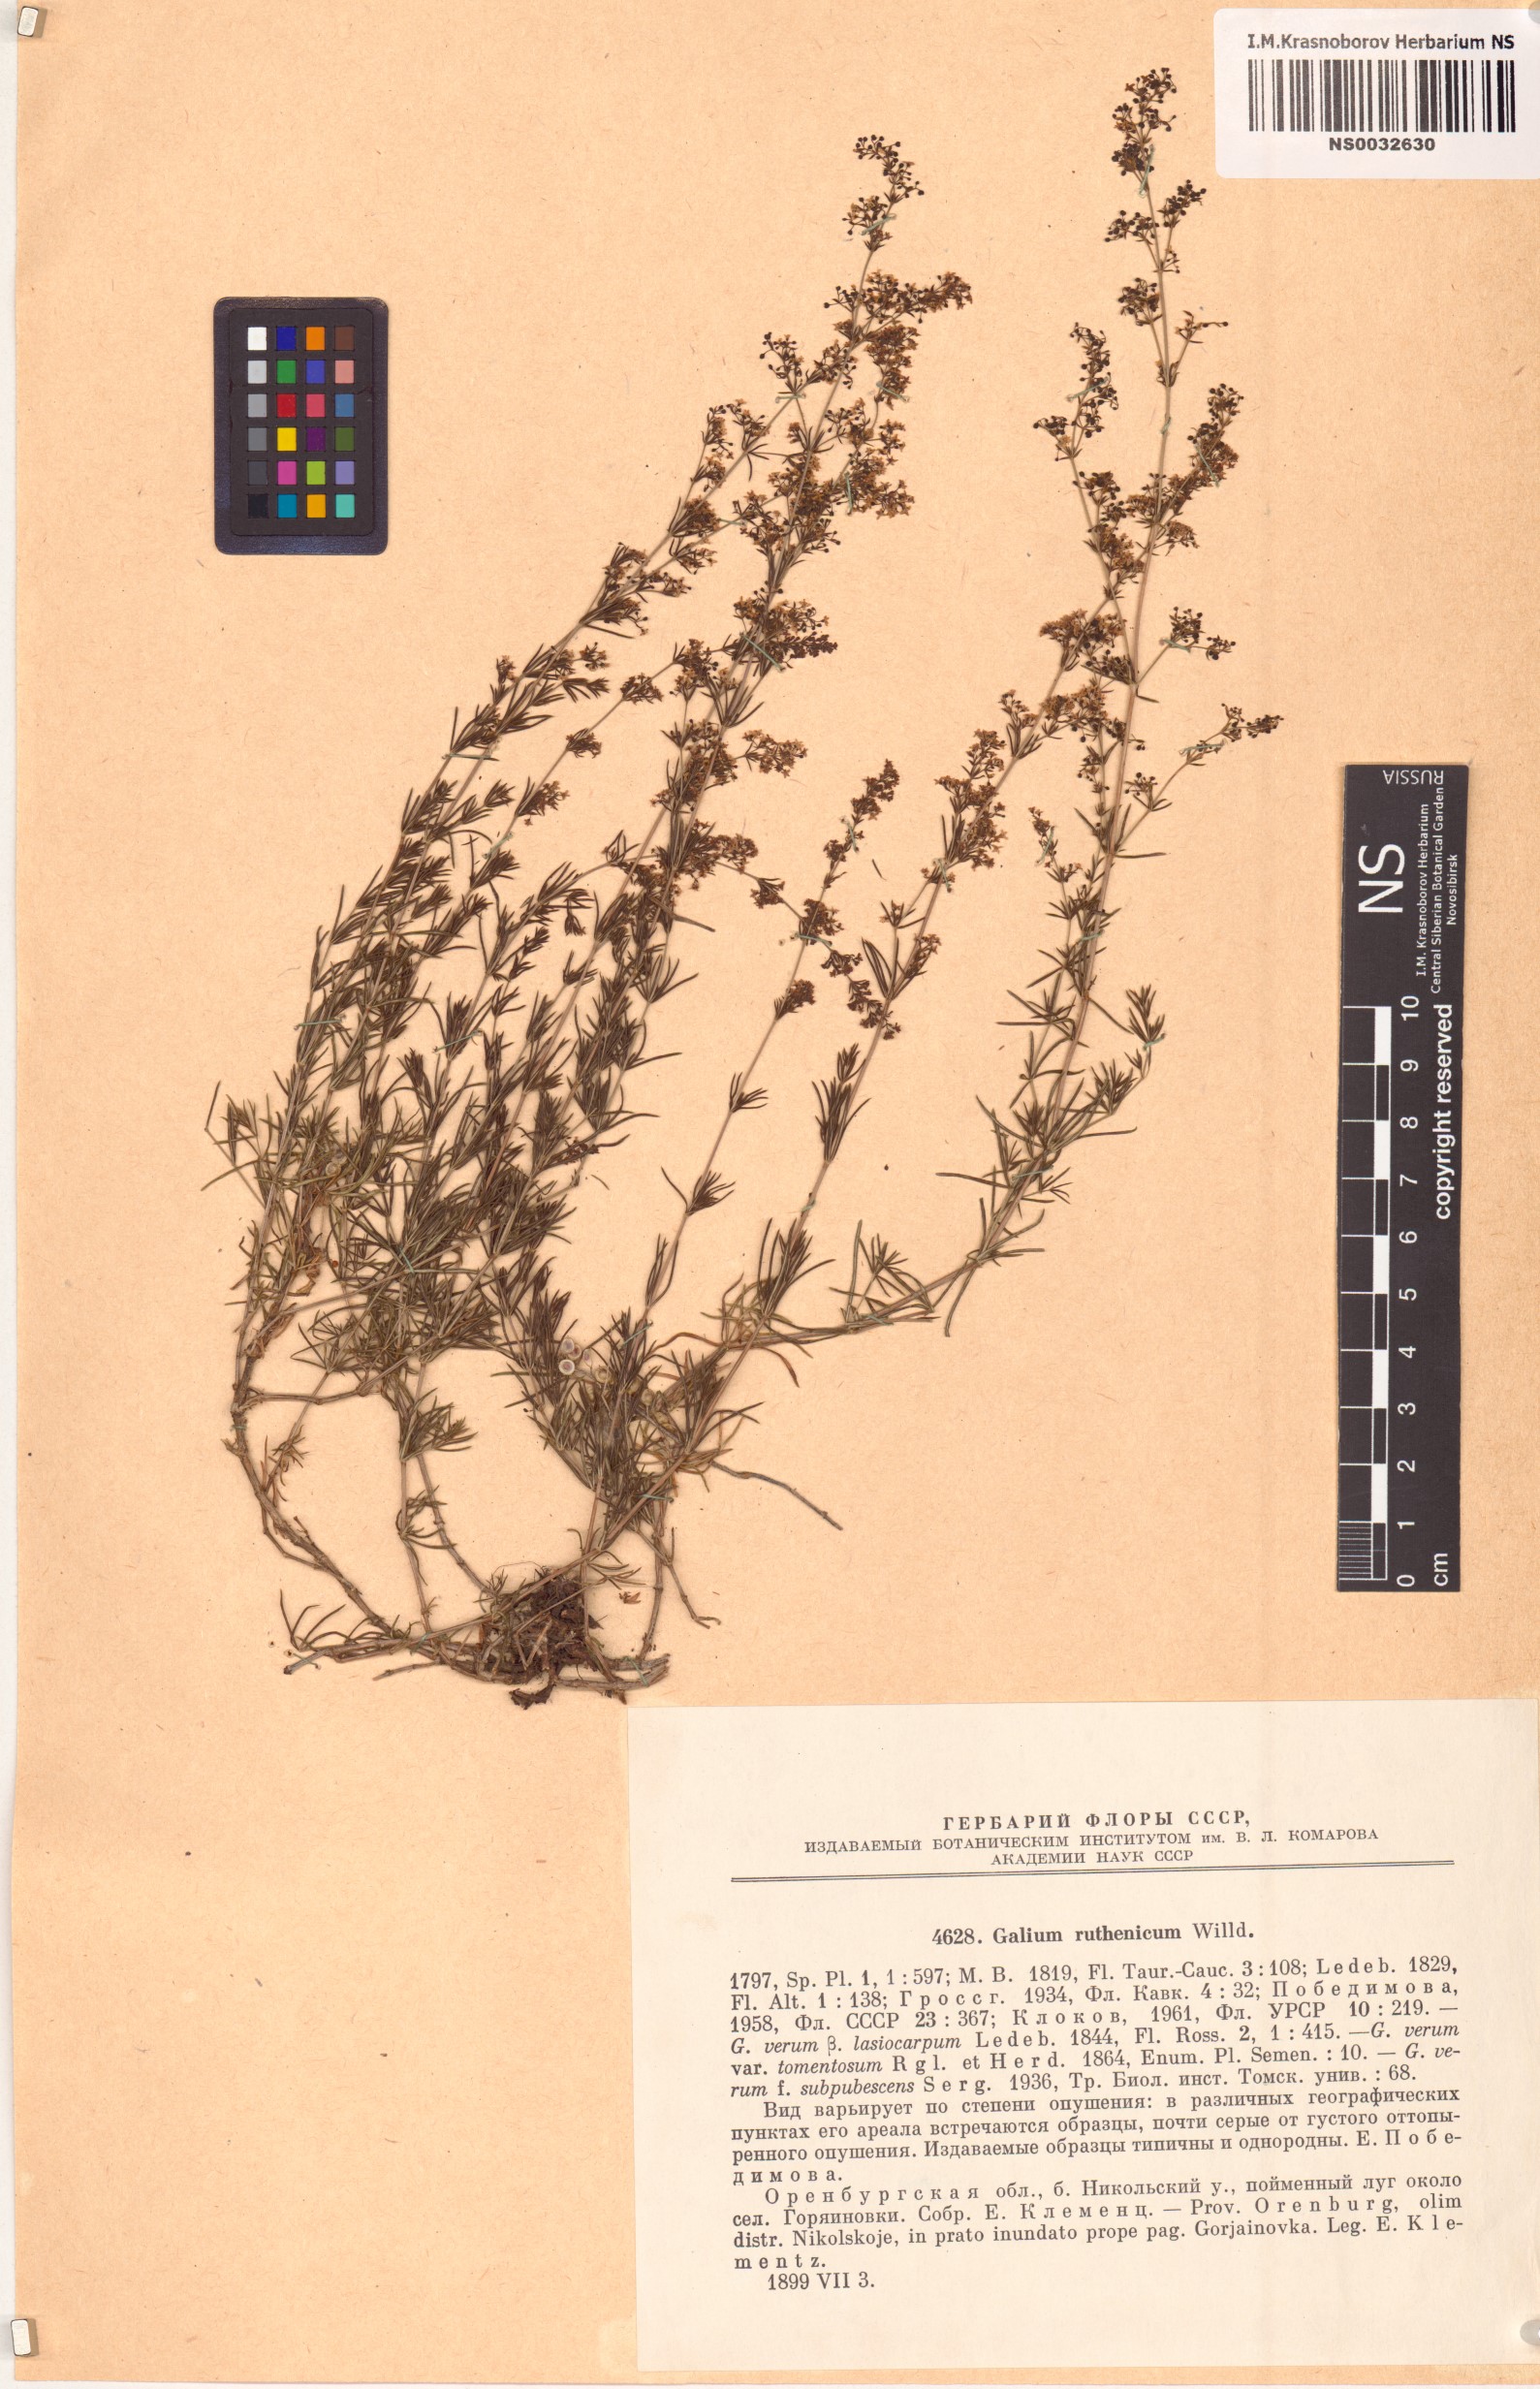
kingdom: Plantae
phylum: Tracheophyta
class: Magnoliopsida
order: Gentianales
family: Rubiaceae
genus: Galium
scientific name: Galium verum
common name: Lady's bedstraw
